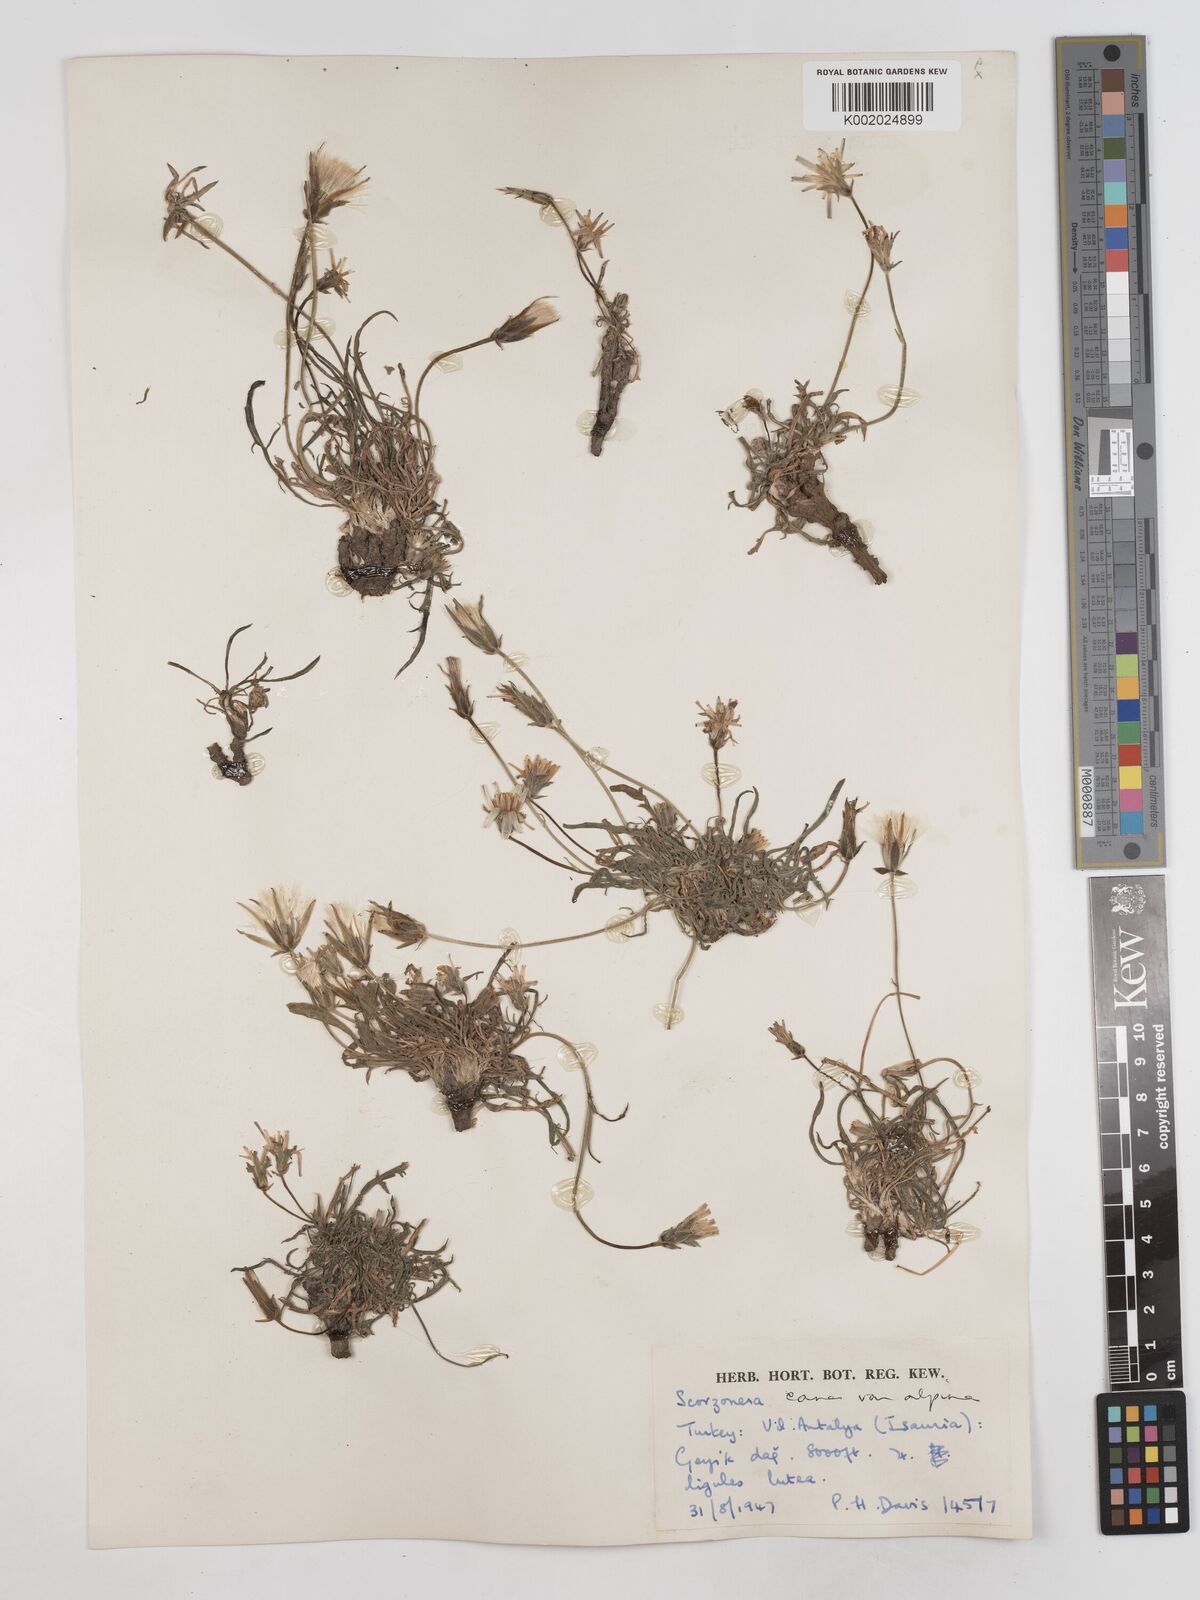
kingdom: Plantae
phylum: Tracheophyta
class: Magnoliopsida
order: Asterales
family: Asteraceae
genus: Scorzonera
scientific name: Scorzonera alpigena
